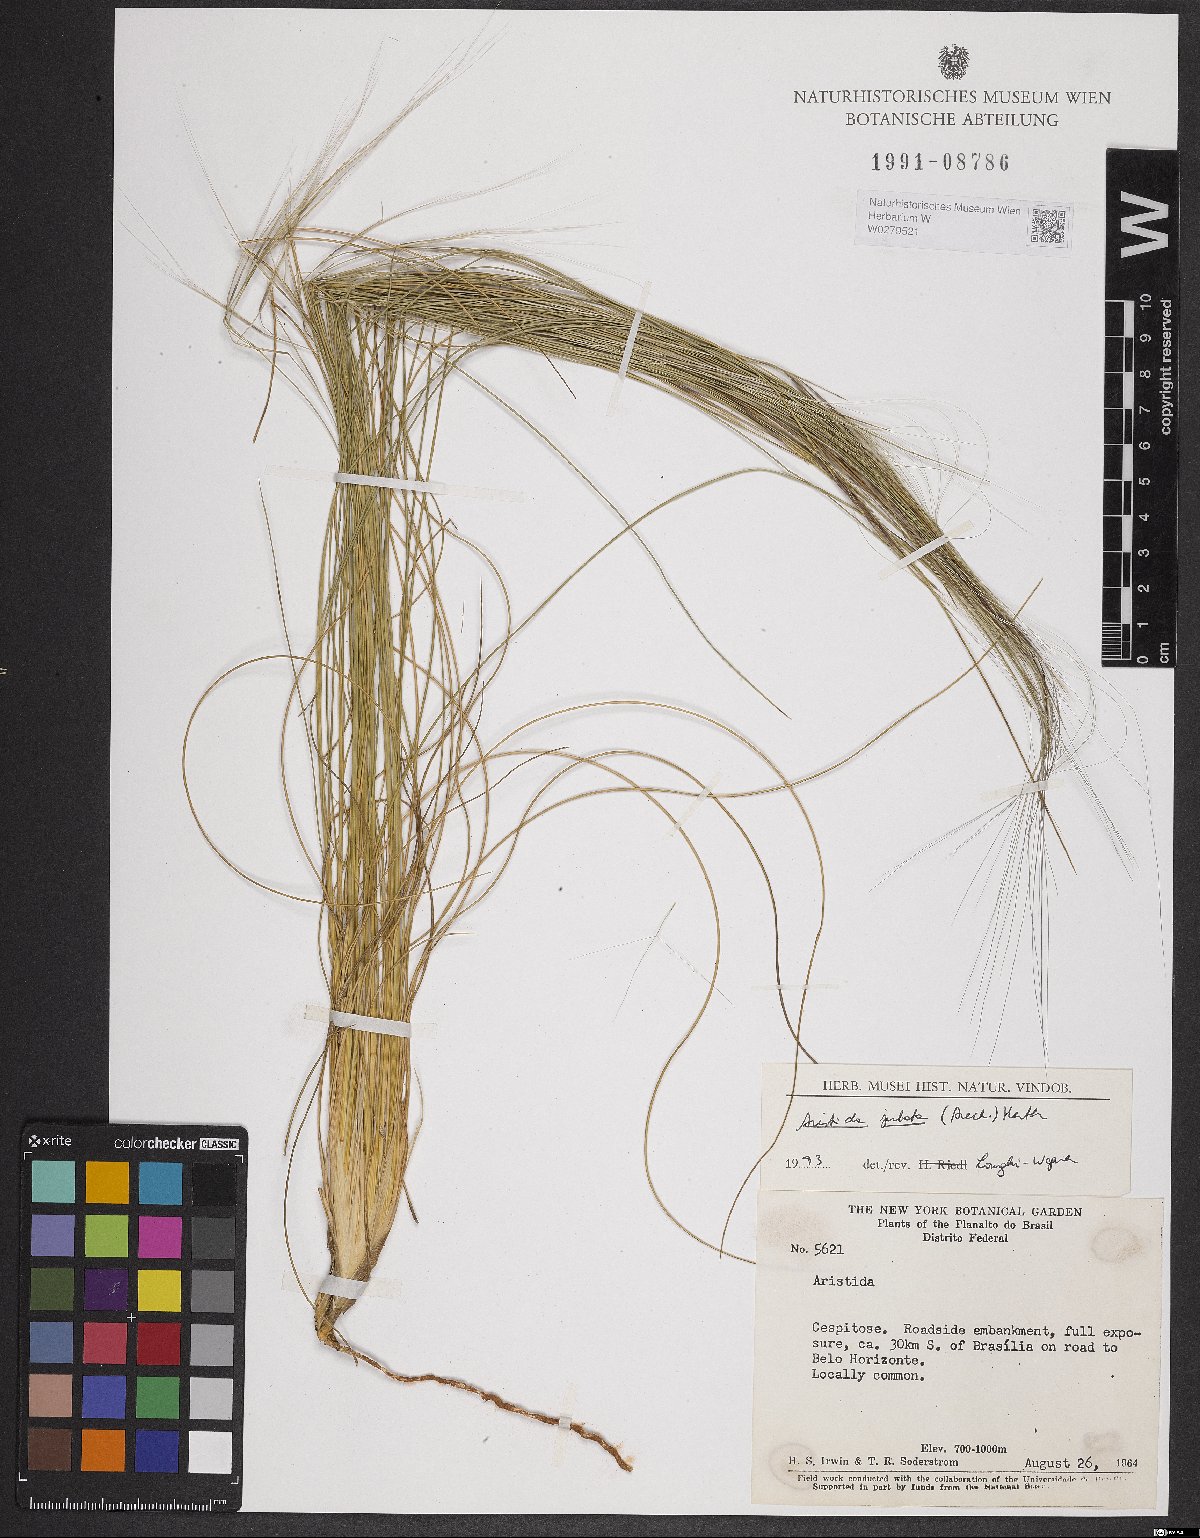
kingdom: Plantae
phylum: Tracheophyta
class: Liliopsida
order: Poales
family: Poaceae
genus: Aristida
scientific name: Aristida jubata
